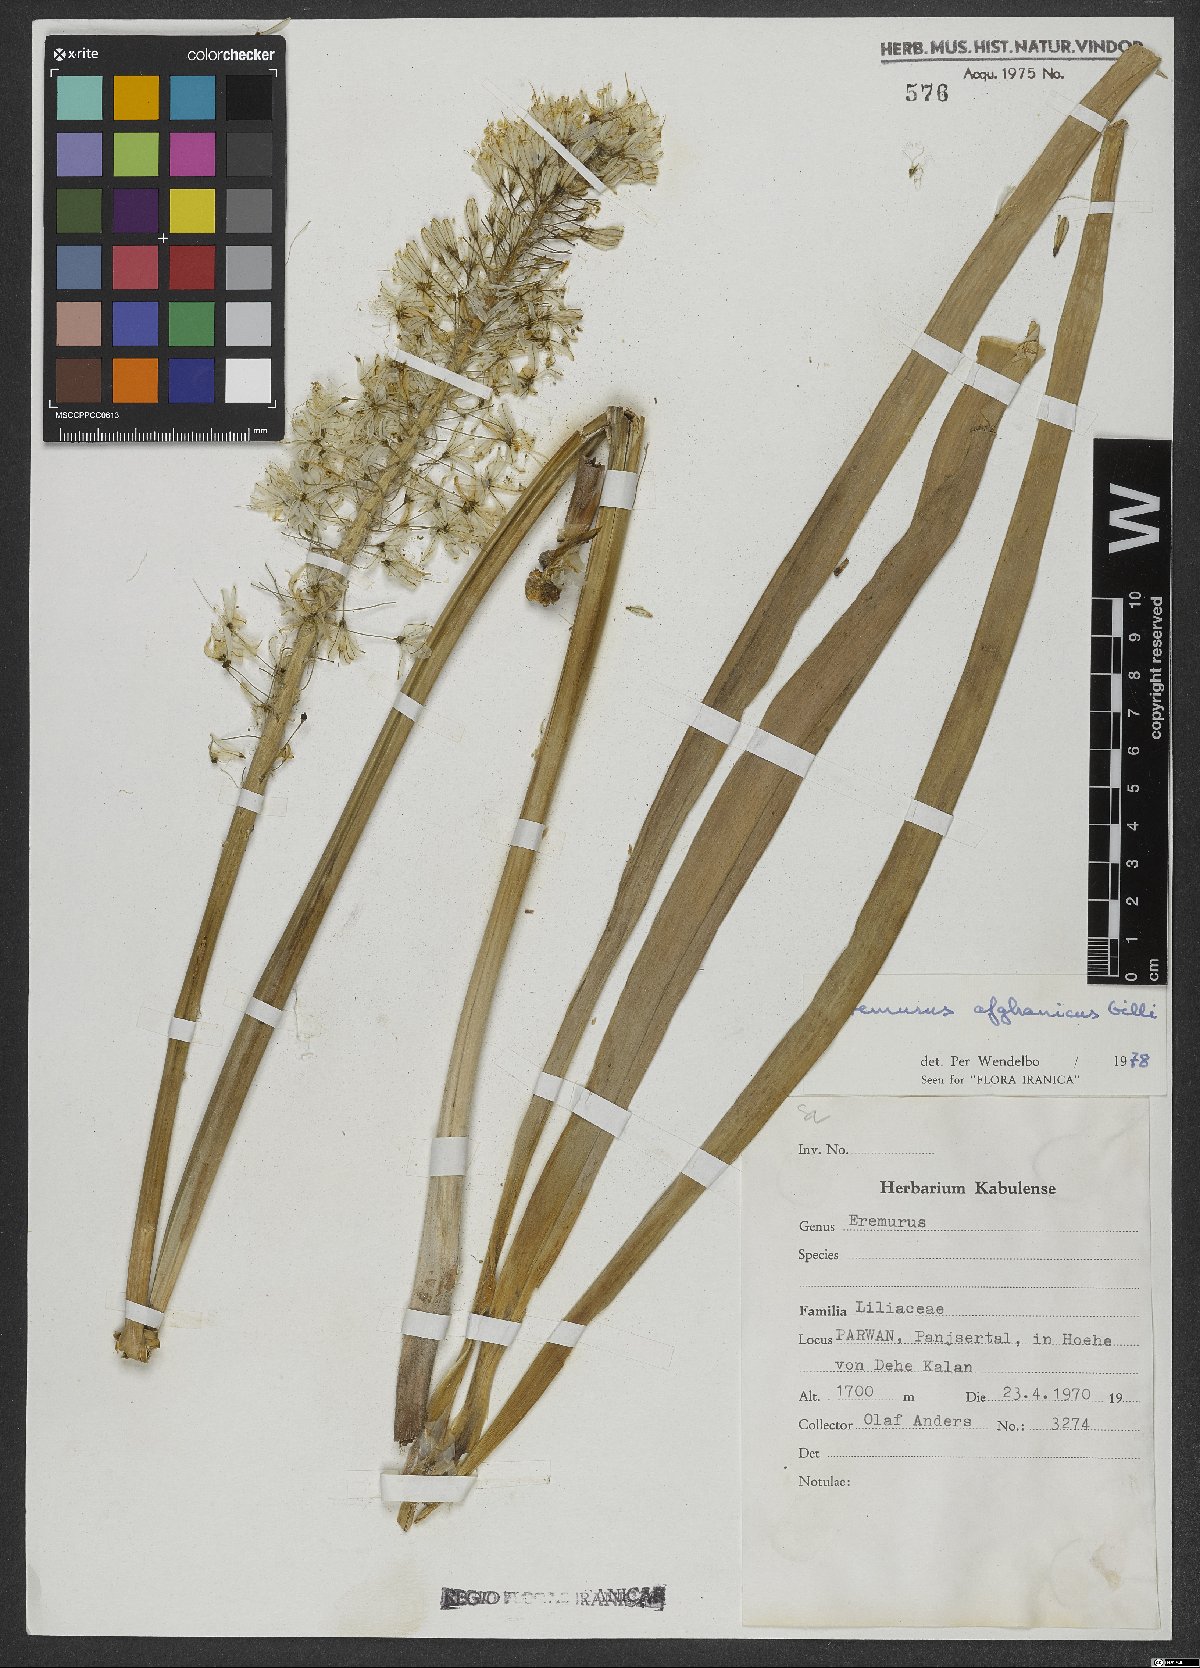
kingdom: Plantae
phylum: Tracheophyta
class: Liliopsida
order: Asparagales
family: Asphodelaceae
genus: Eremurus
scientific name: Eremurus afghanicus
